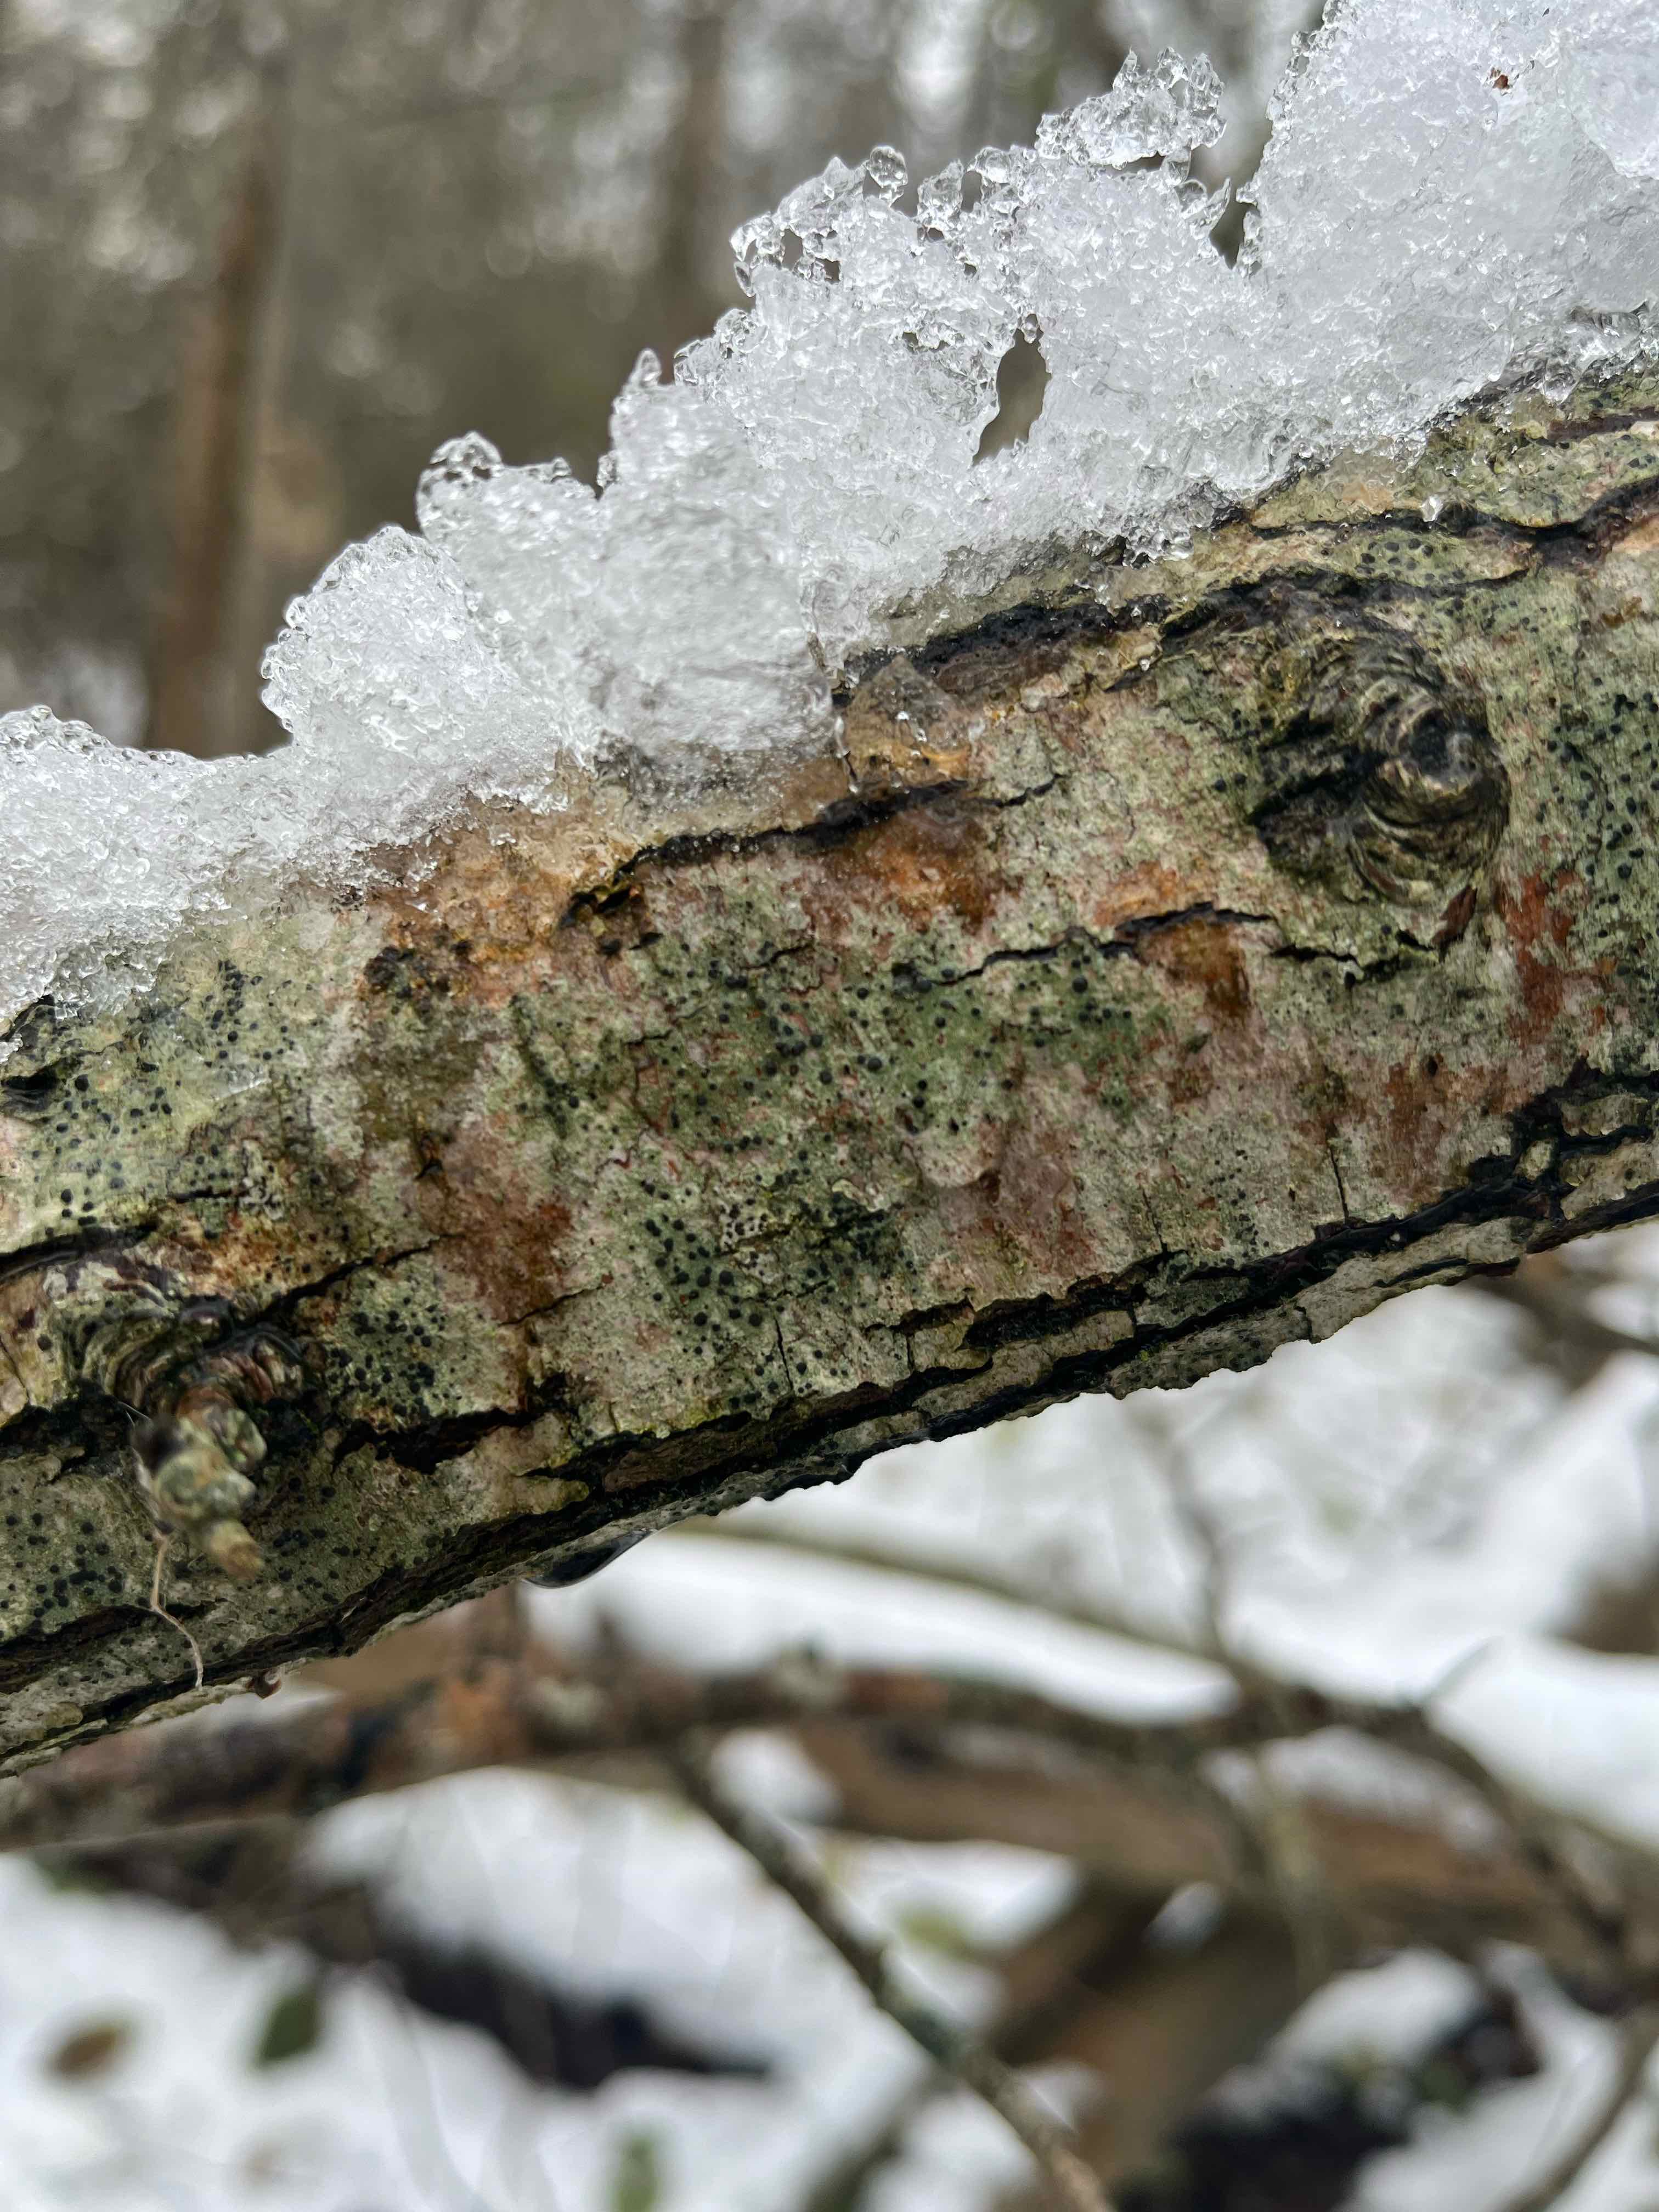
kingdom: Fungi
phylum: Ascomycota
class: Lecanoromycetes
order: Lecanorales
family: Lecanoraceae
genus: Lecidella
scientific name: Lecidella elaeochroma
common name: grågrøn skivelav
